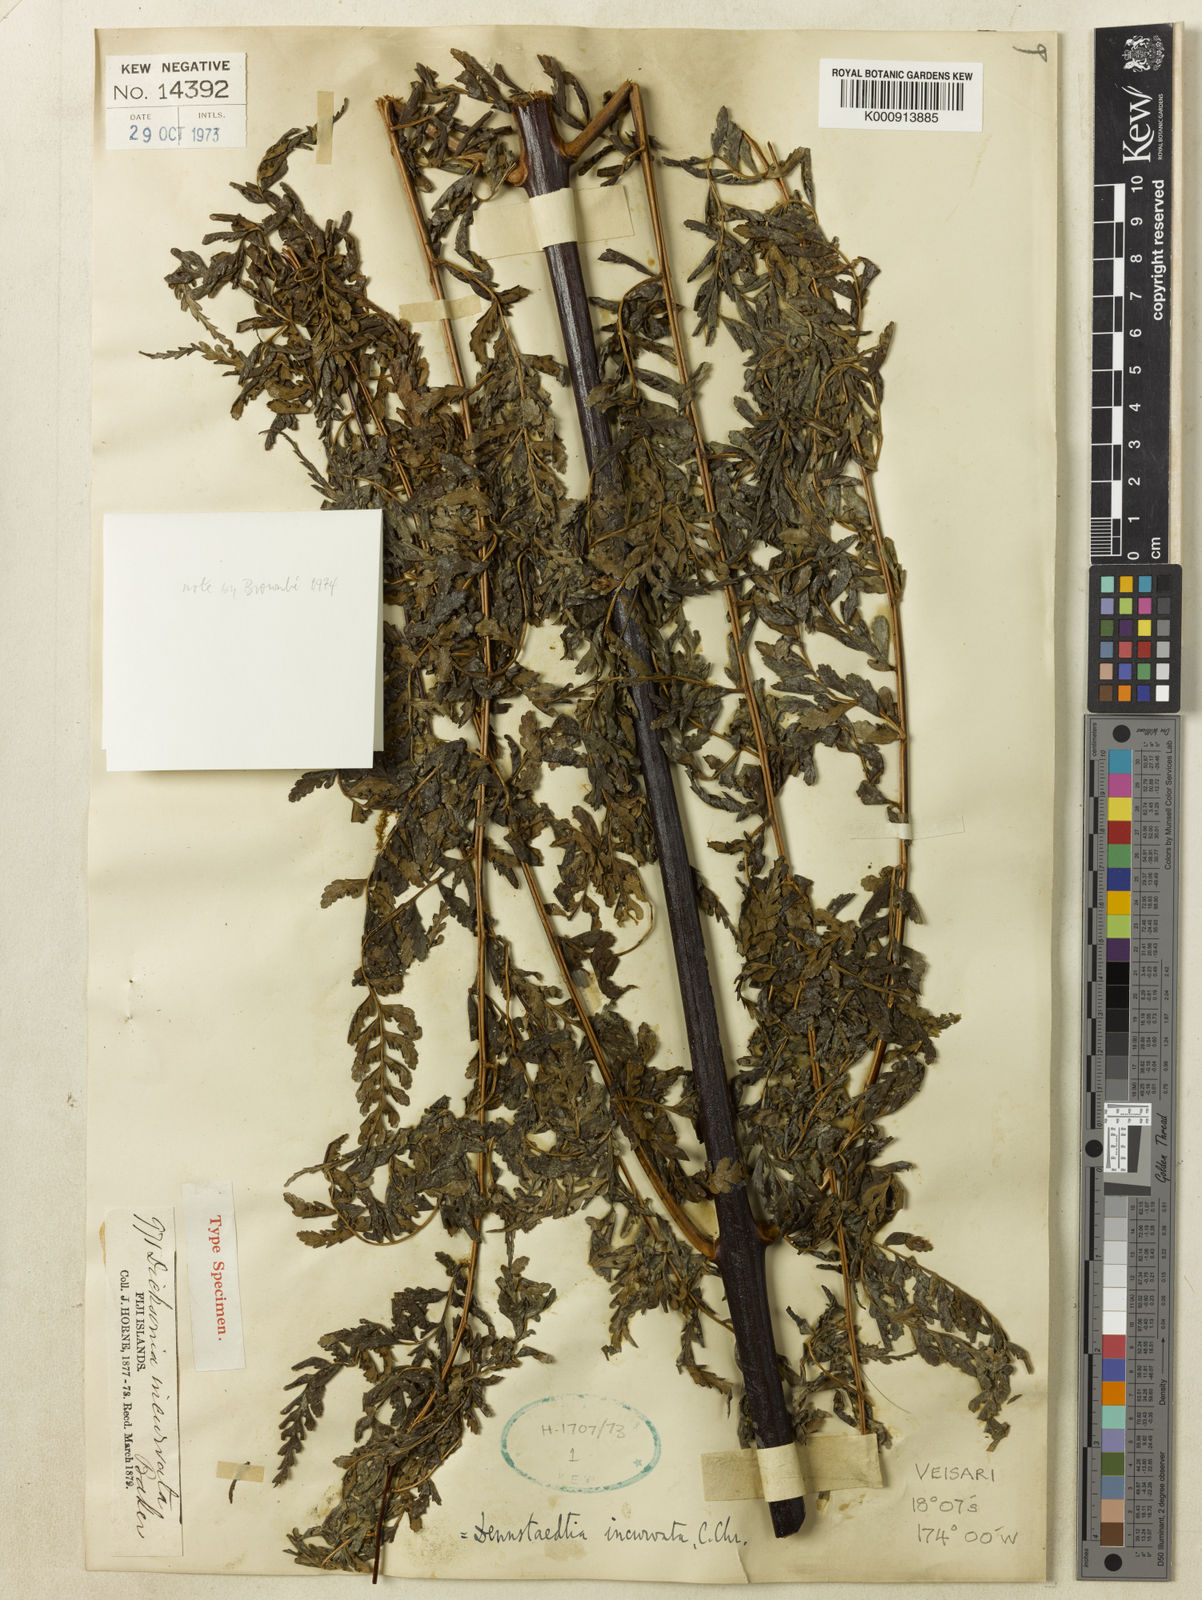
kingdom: Plantae
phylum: Tracheophyta
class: Polypodiopsida
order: Polypodiales
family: Dennstaedtiaceae
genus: Dennstaedtia
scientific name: Dennstaedtia glabrata
